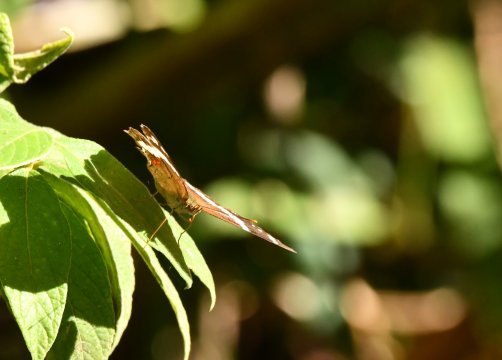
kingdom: Animalia
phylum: Arthropoda
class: Insecta
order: Lepidoptera
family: Nymphalidae
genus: Anartia
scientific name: Anartia fatima
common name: Banded Peacock
